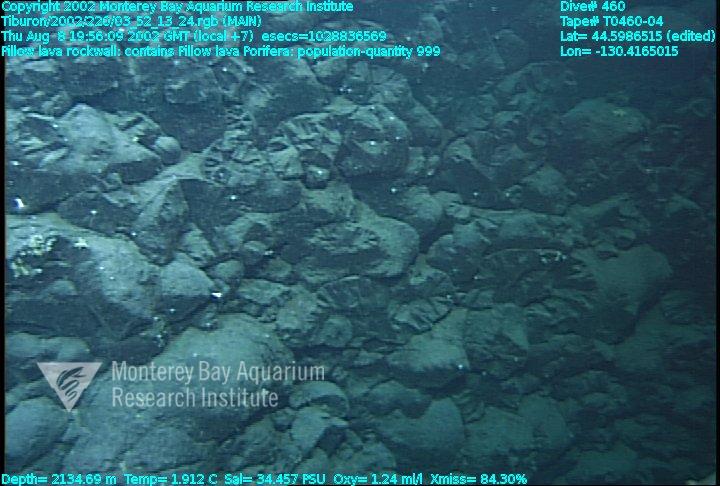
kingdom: Animalia
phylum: Porifera
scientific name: Porifera
